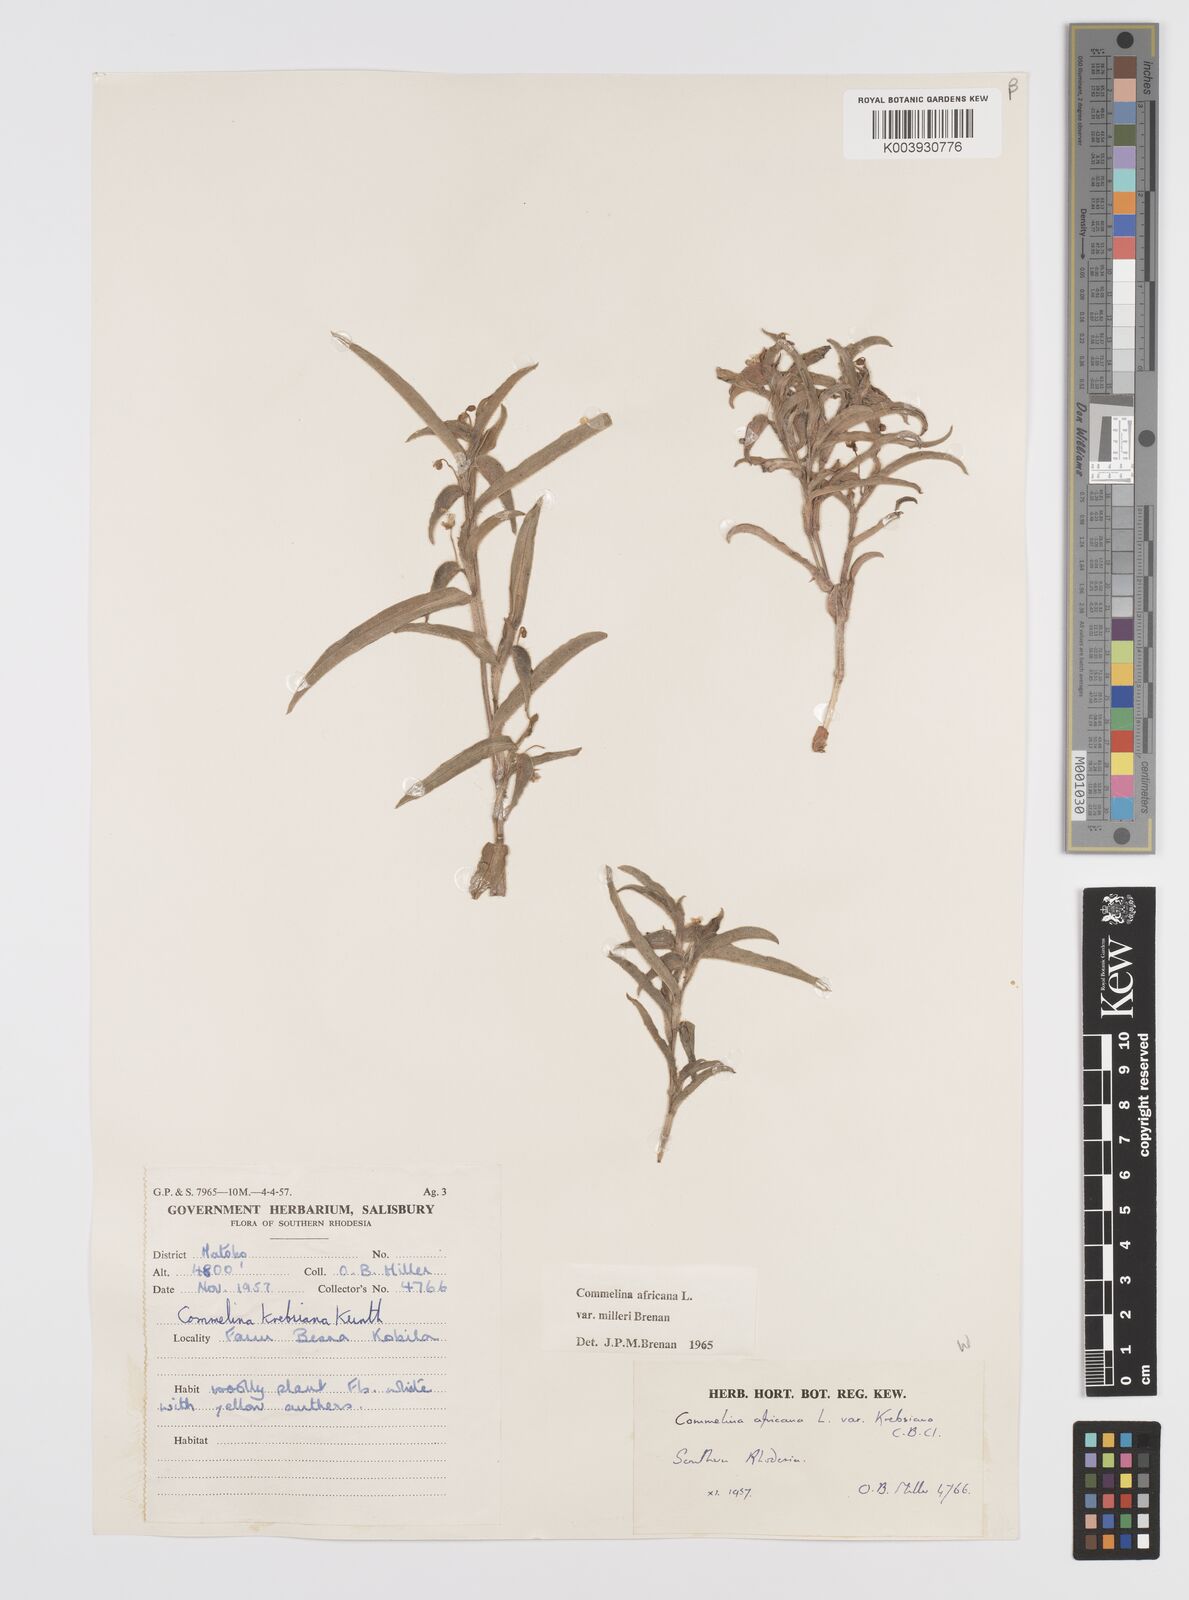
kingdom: Plantae
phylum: Tracheophyta
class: Liliopsida
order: Commelinales
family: Commelinaceae
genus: Commelina
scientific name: Commelina africana
